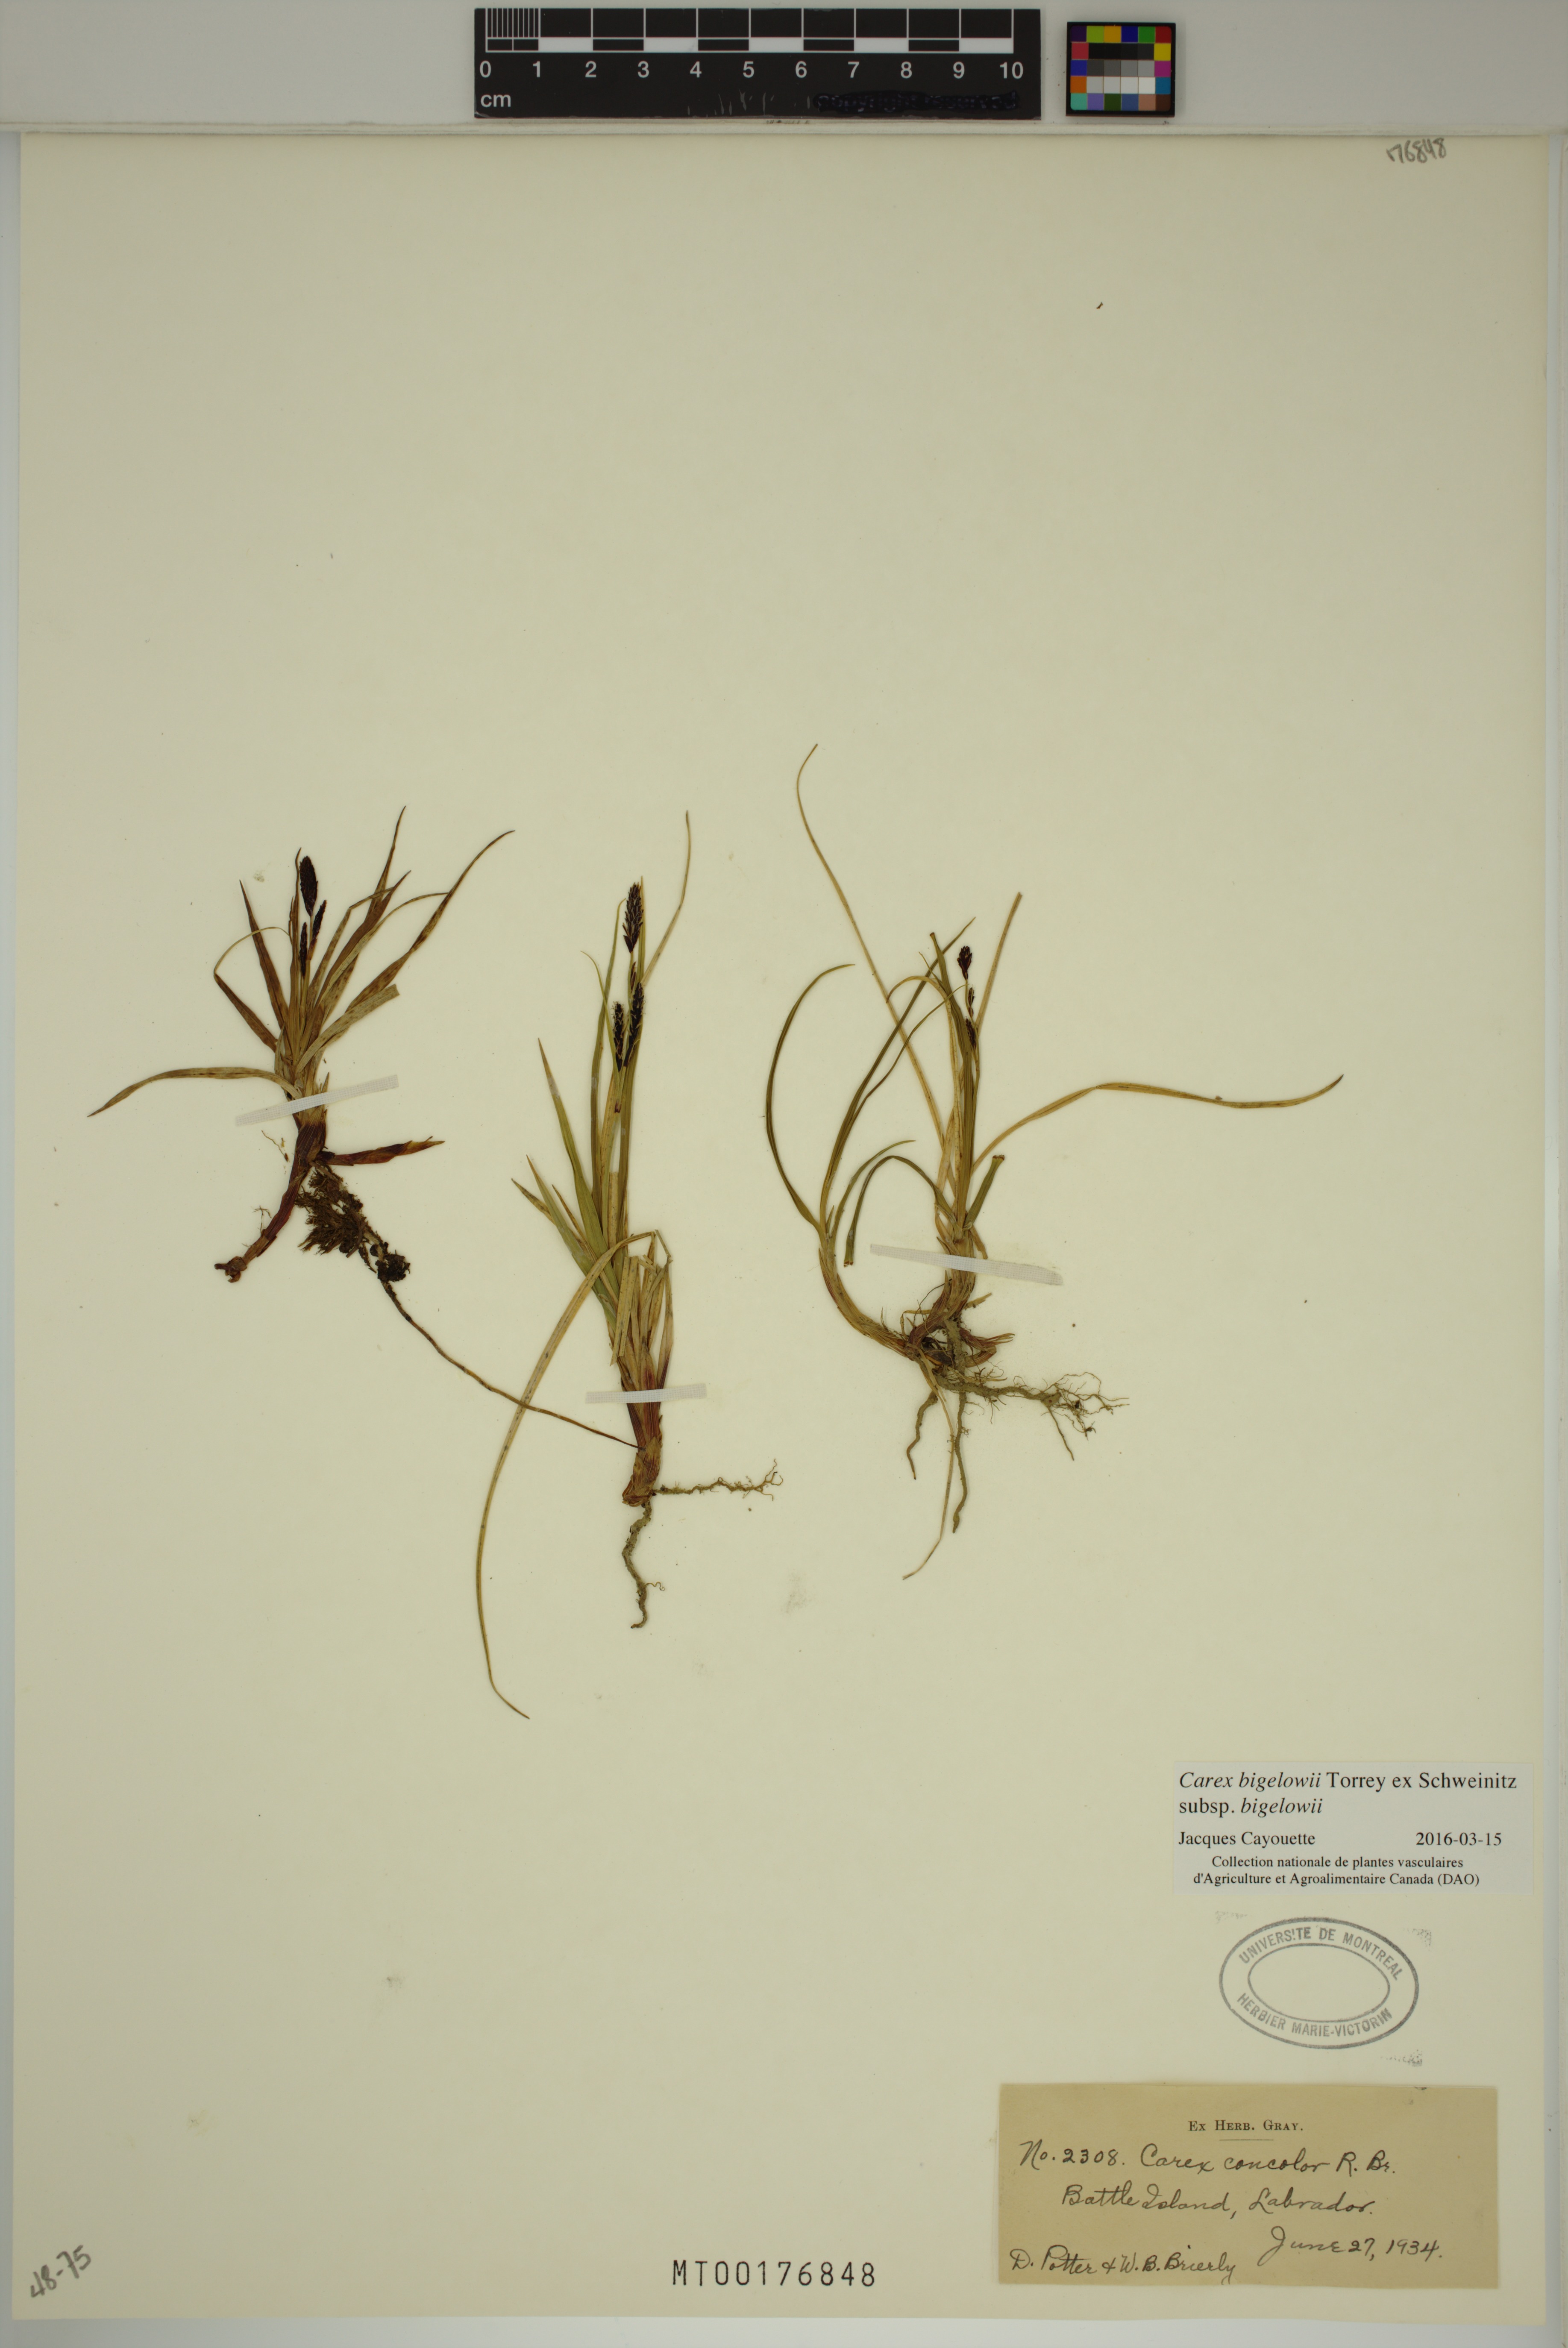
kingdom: Plantae
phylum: Tracheophyta
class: Liliopsida
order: Poales
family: Cyperaceae
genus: Carex
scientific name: Carex bigelowii
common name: Stiff sedge
